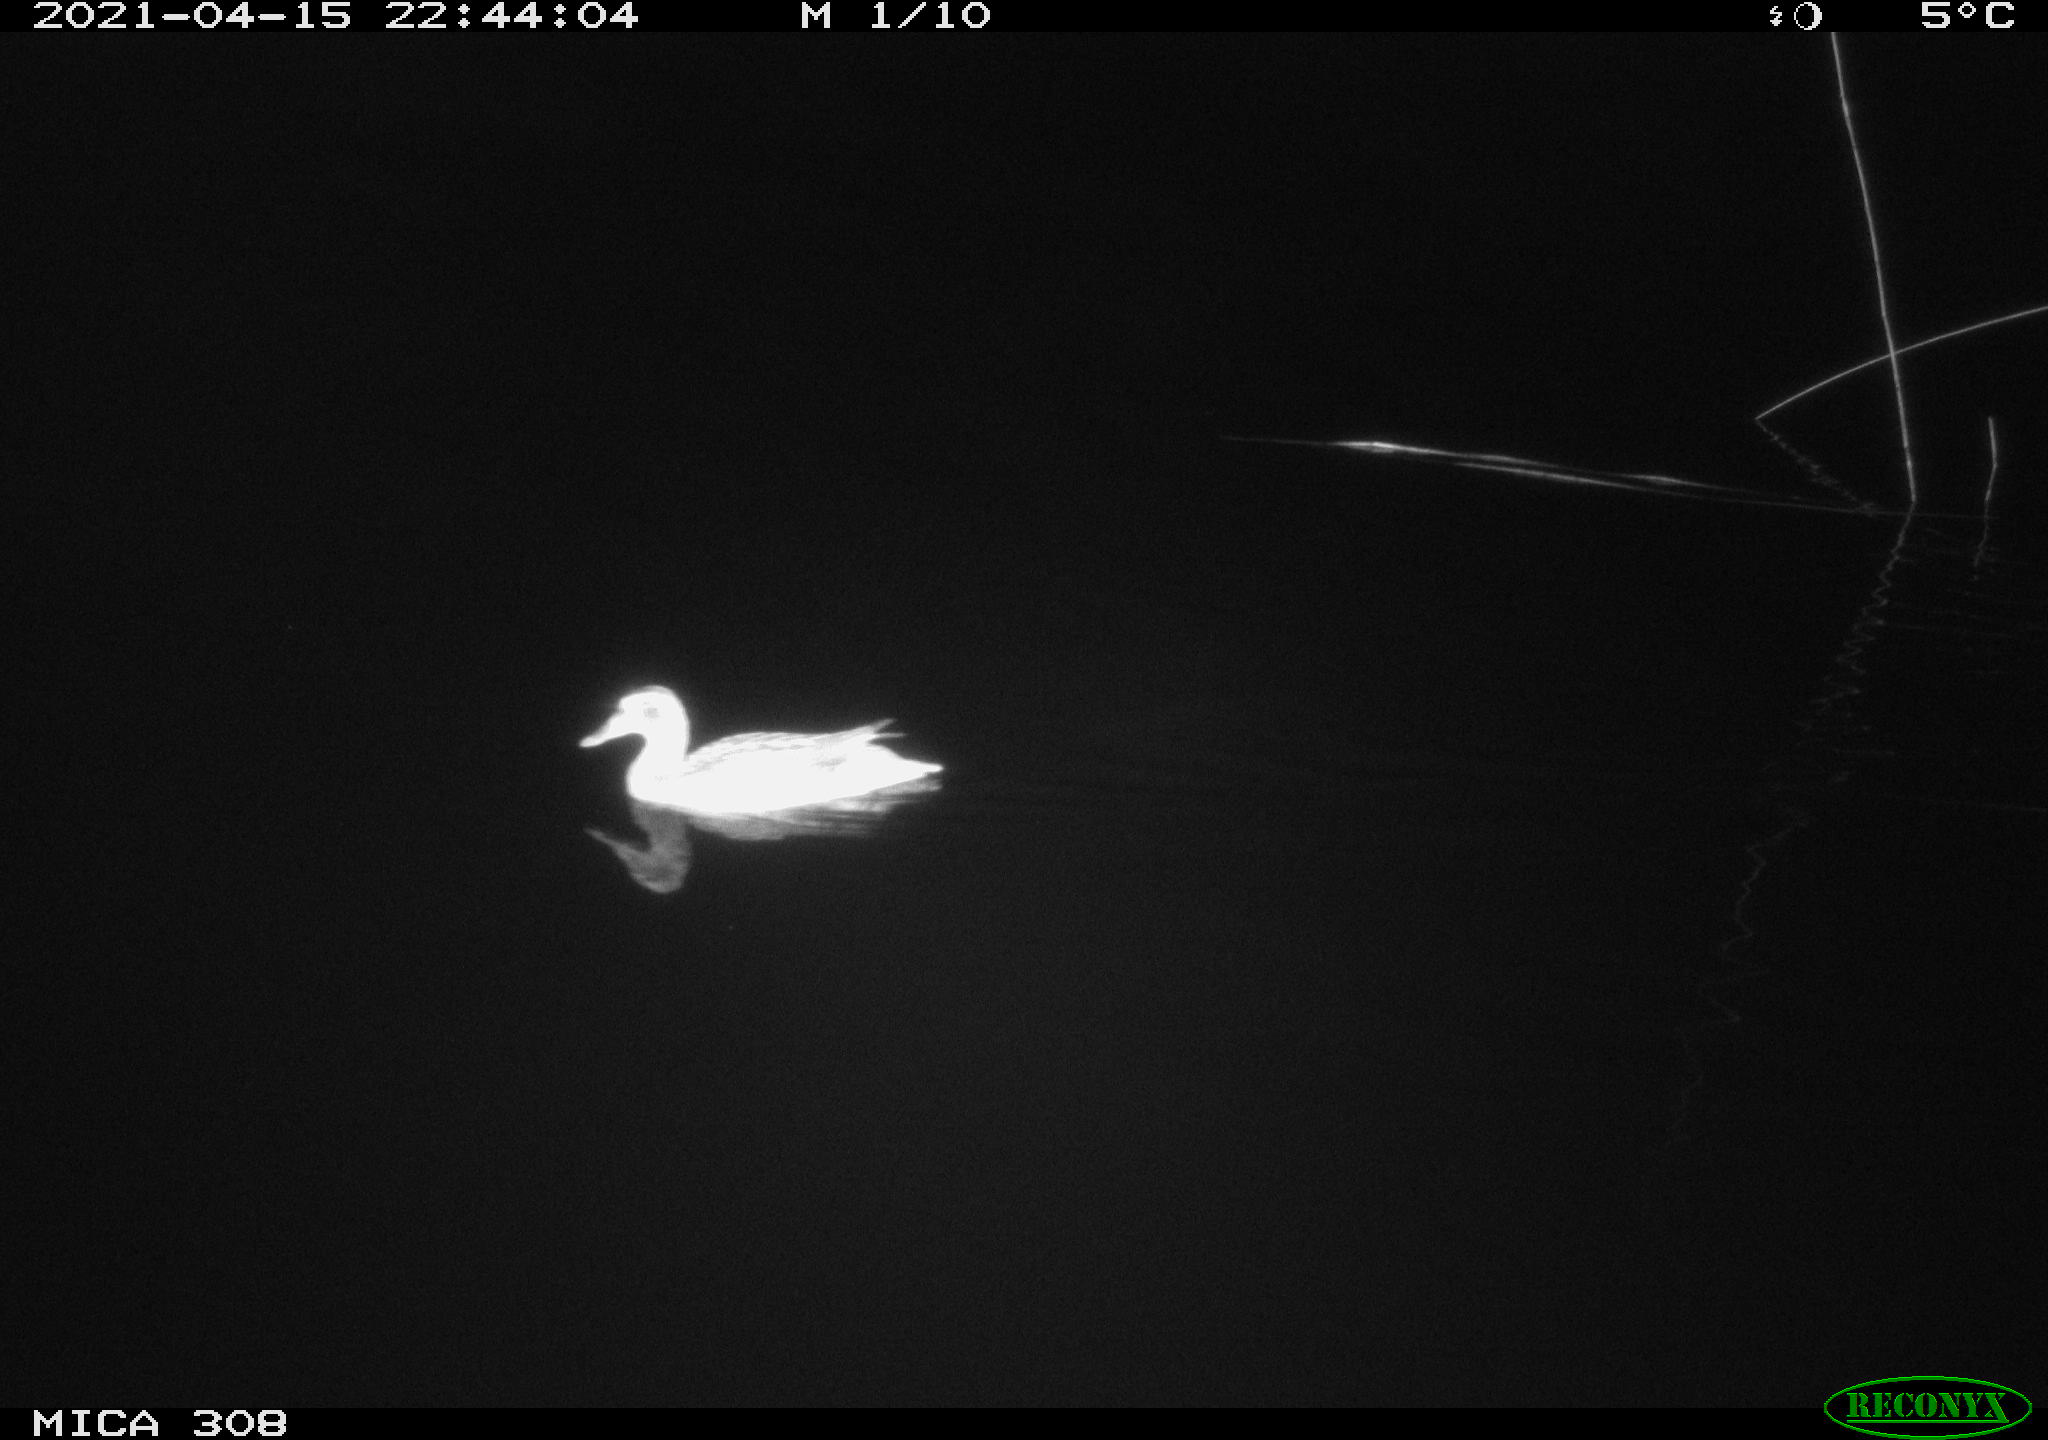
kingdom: Animalia
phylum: Chordata
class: Aves
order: Anseriformes
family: Anatidae
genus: Anas
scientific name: Anas platyrhynchos
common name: Mallard
